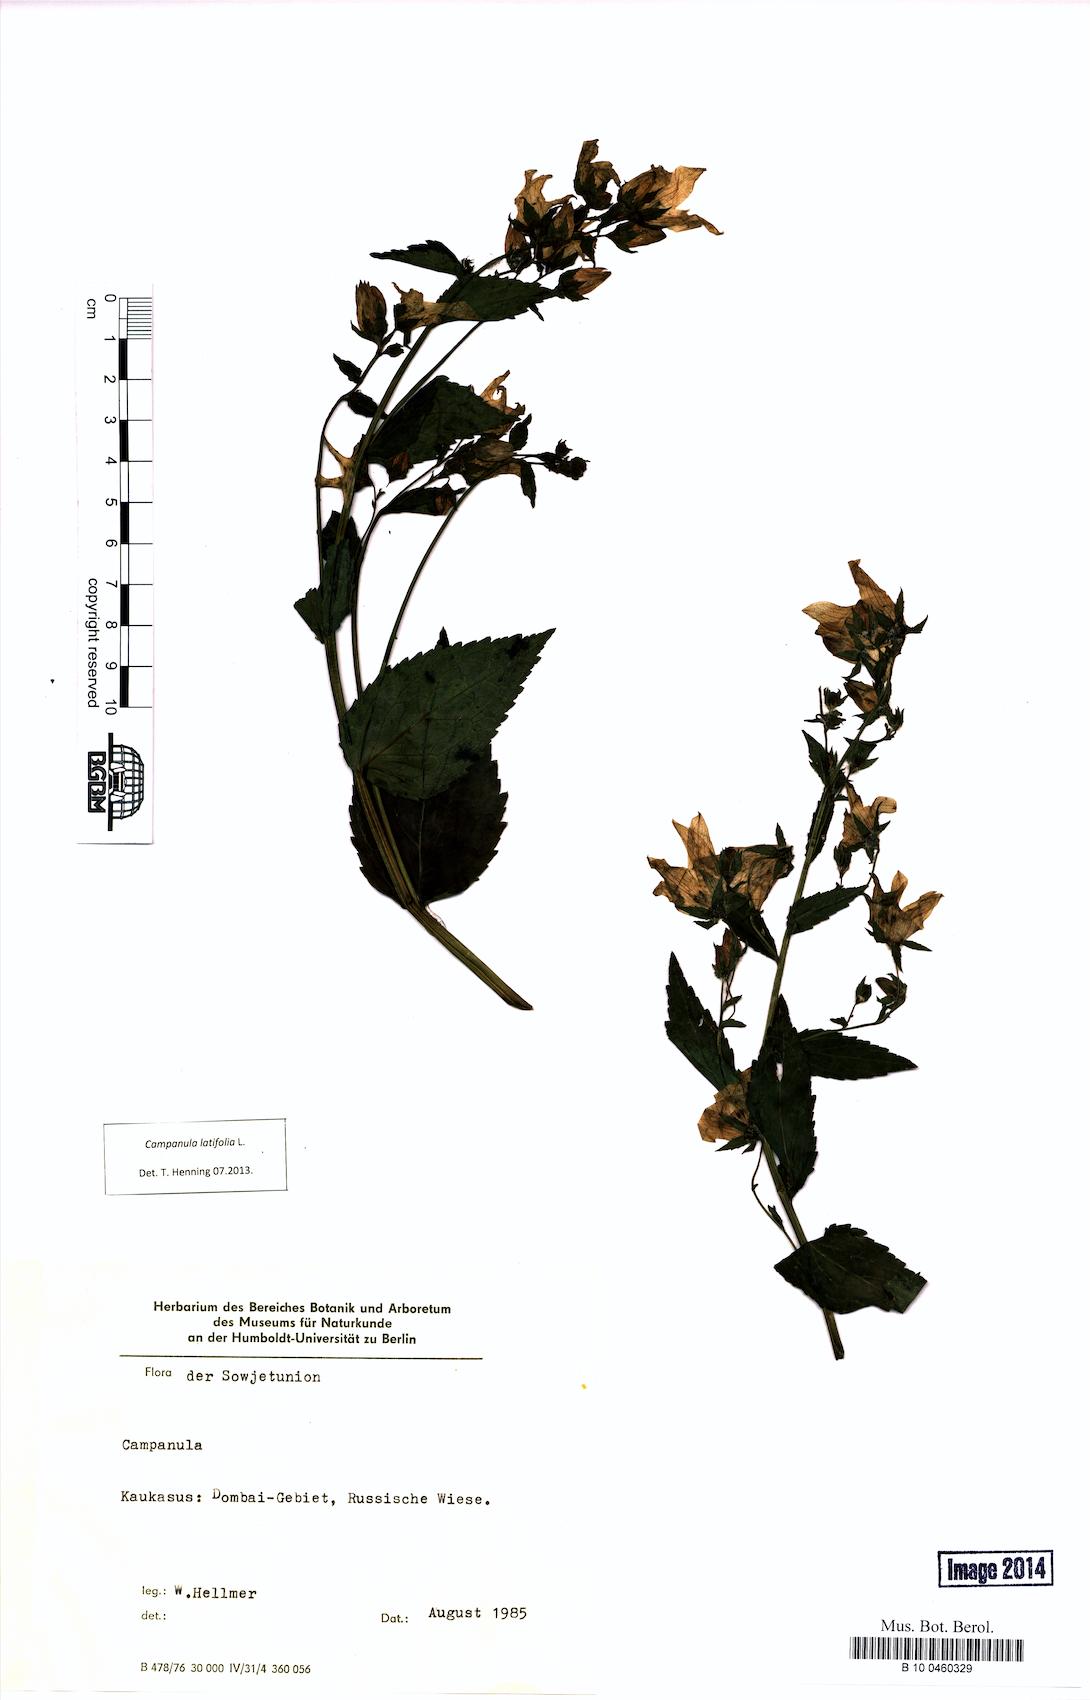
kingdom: Plantae
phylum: Tracheophyta
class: Magnoliopsida
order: Asterales
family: Campanulaceae
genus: Campanula
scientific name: Campanula latifolia
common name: Giant bellflower
